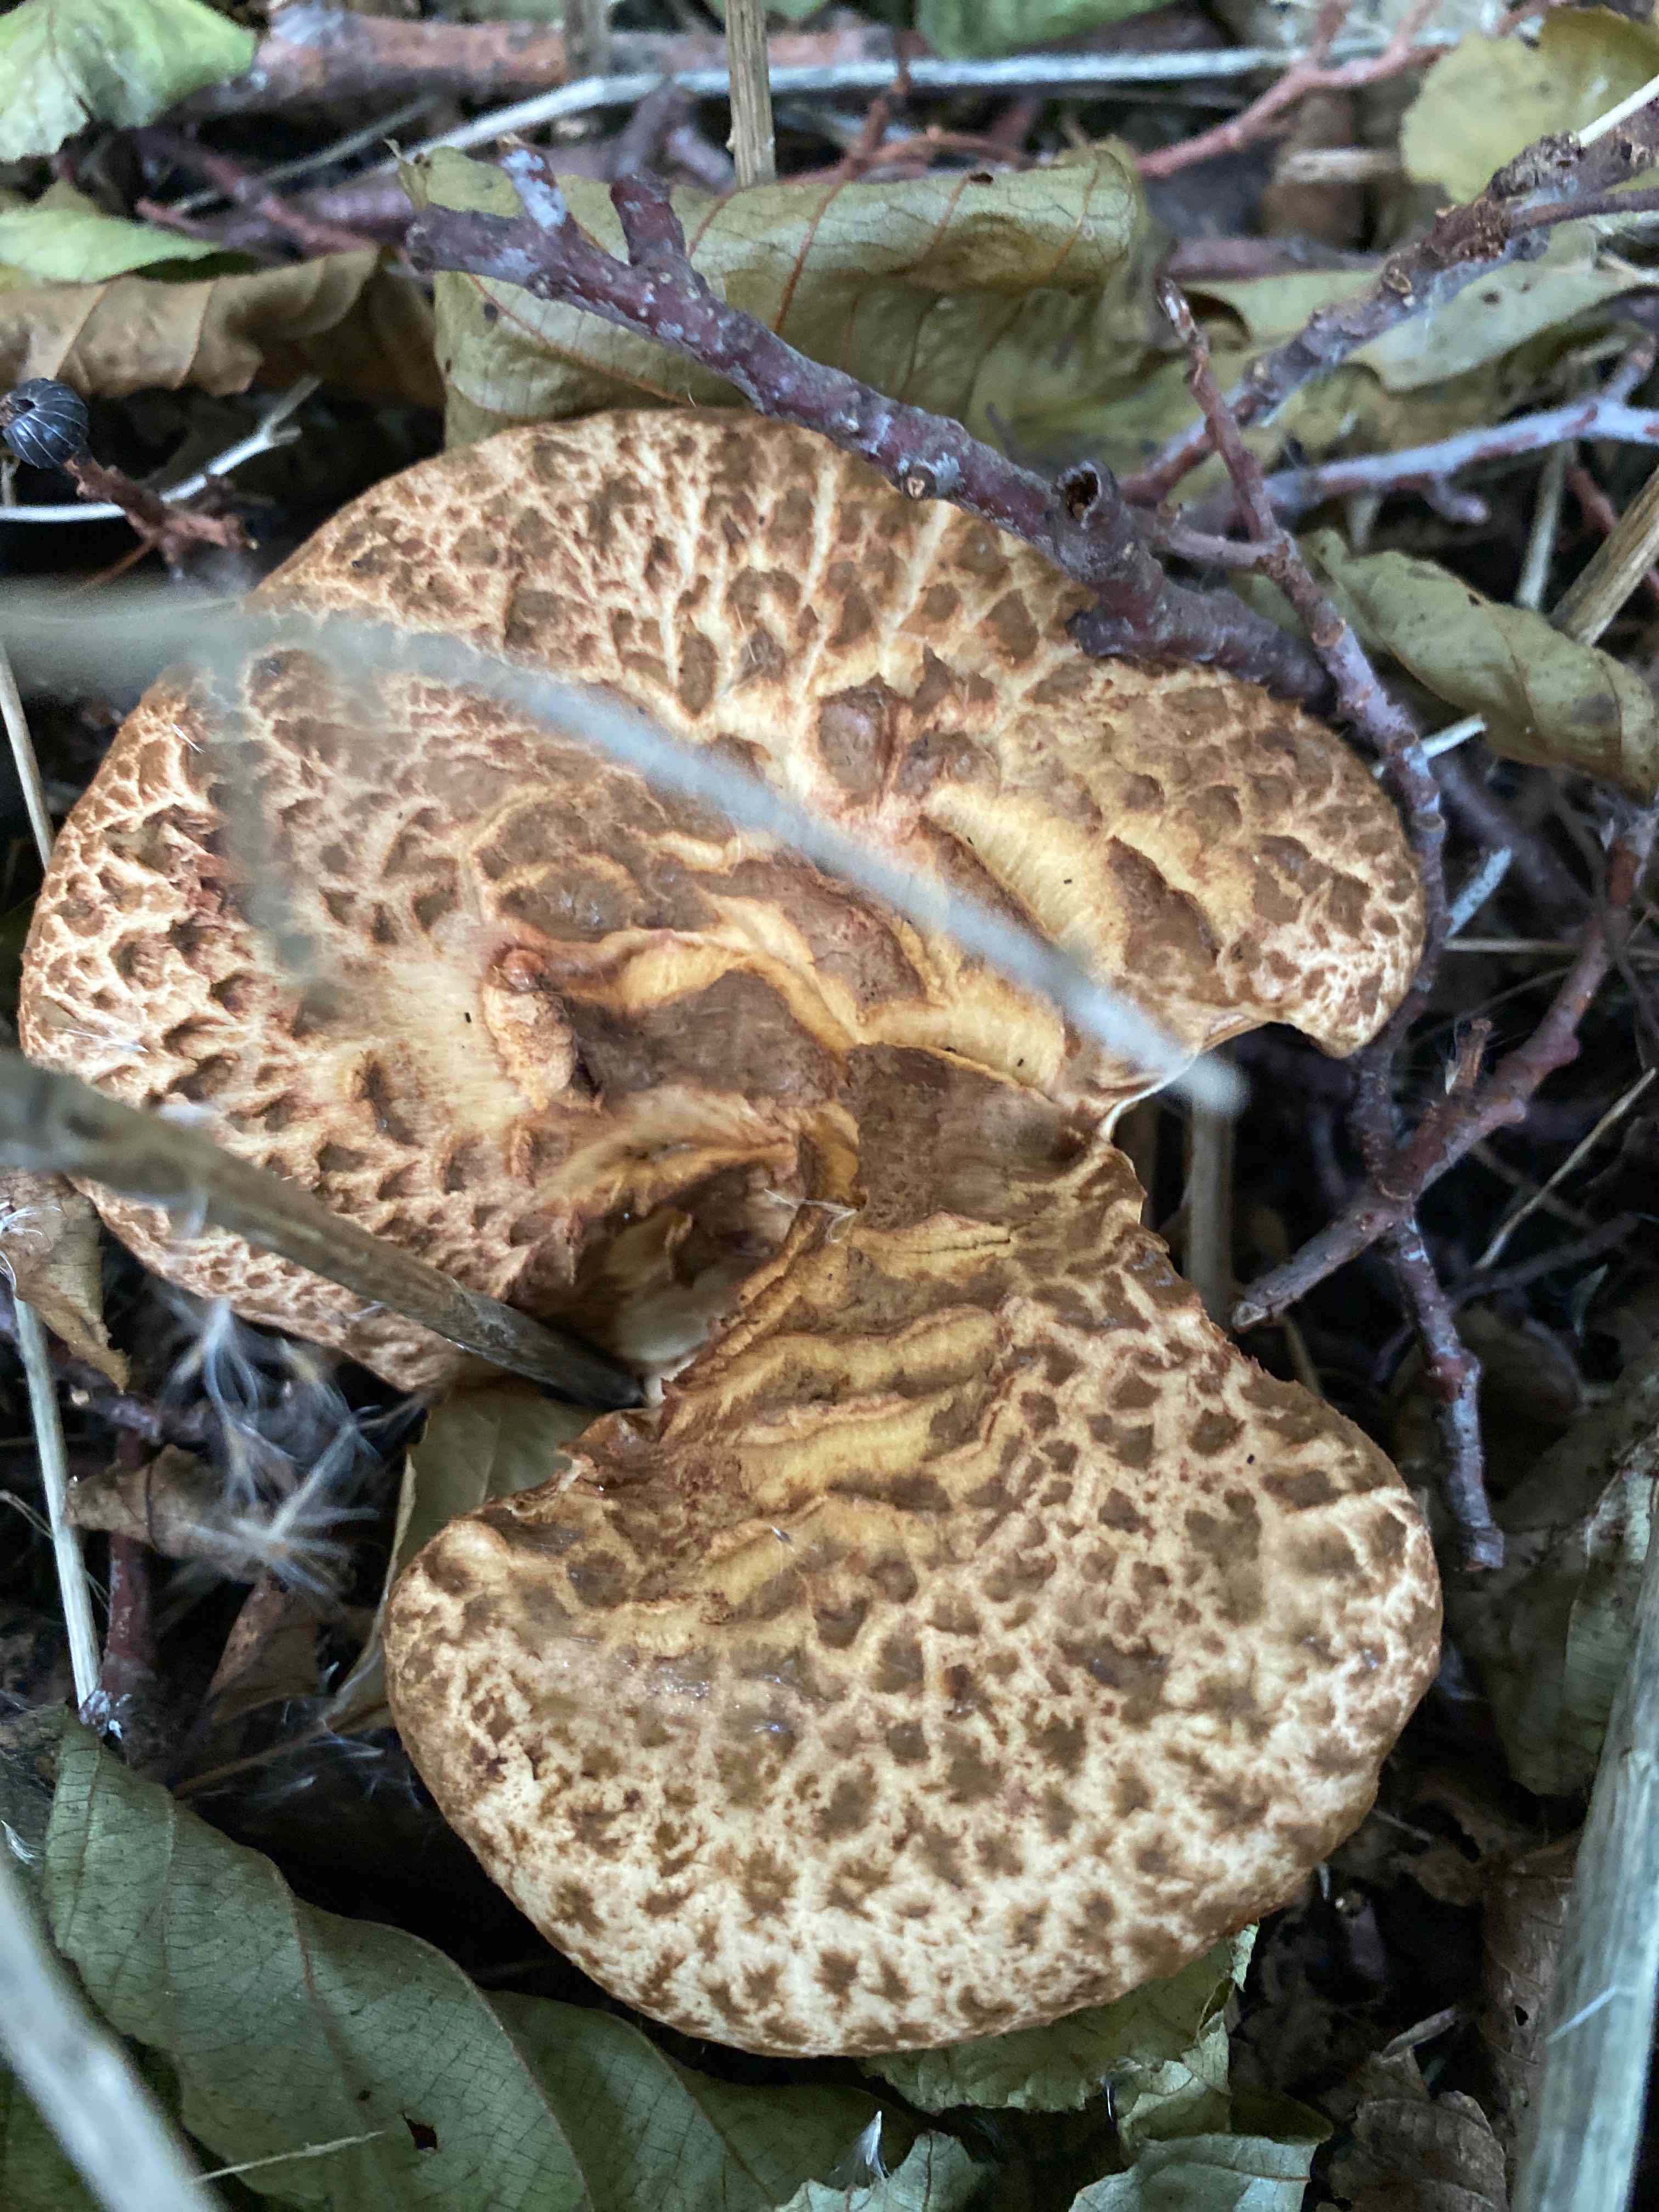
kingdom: Fungi
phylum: Basidiomycota
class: Agaricomycetes
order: Boletales
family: Paxillaceae
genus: Paxillus
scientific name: Paxillus rubicundulus
